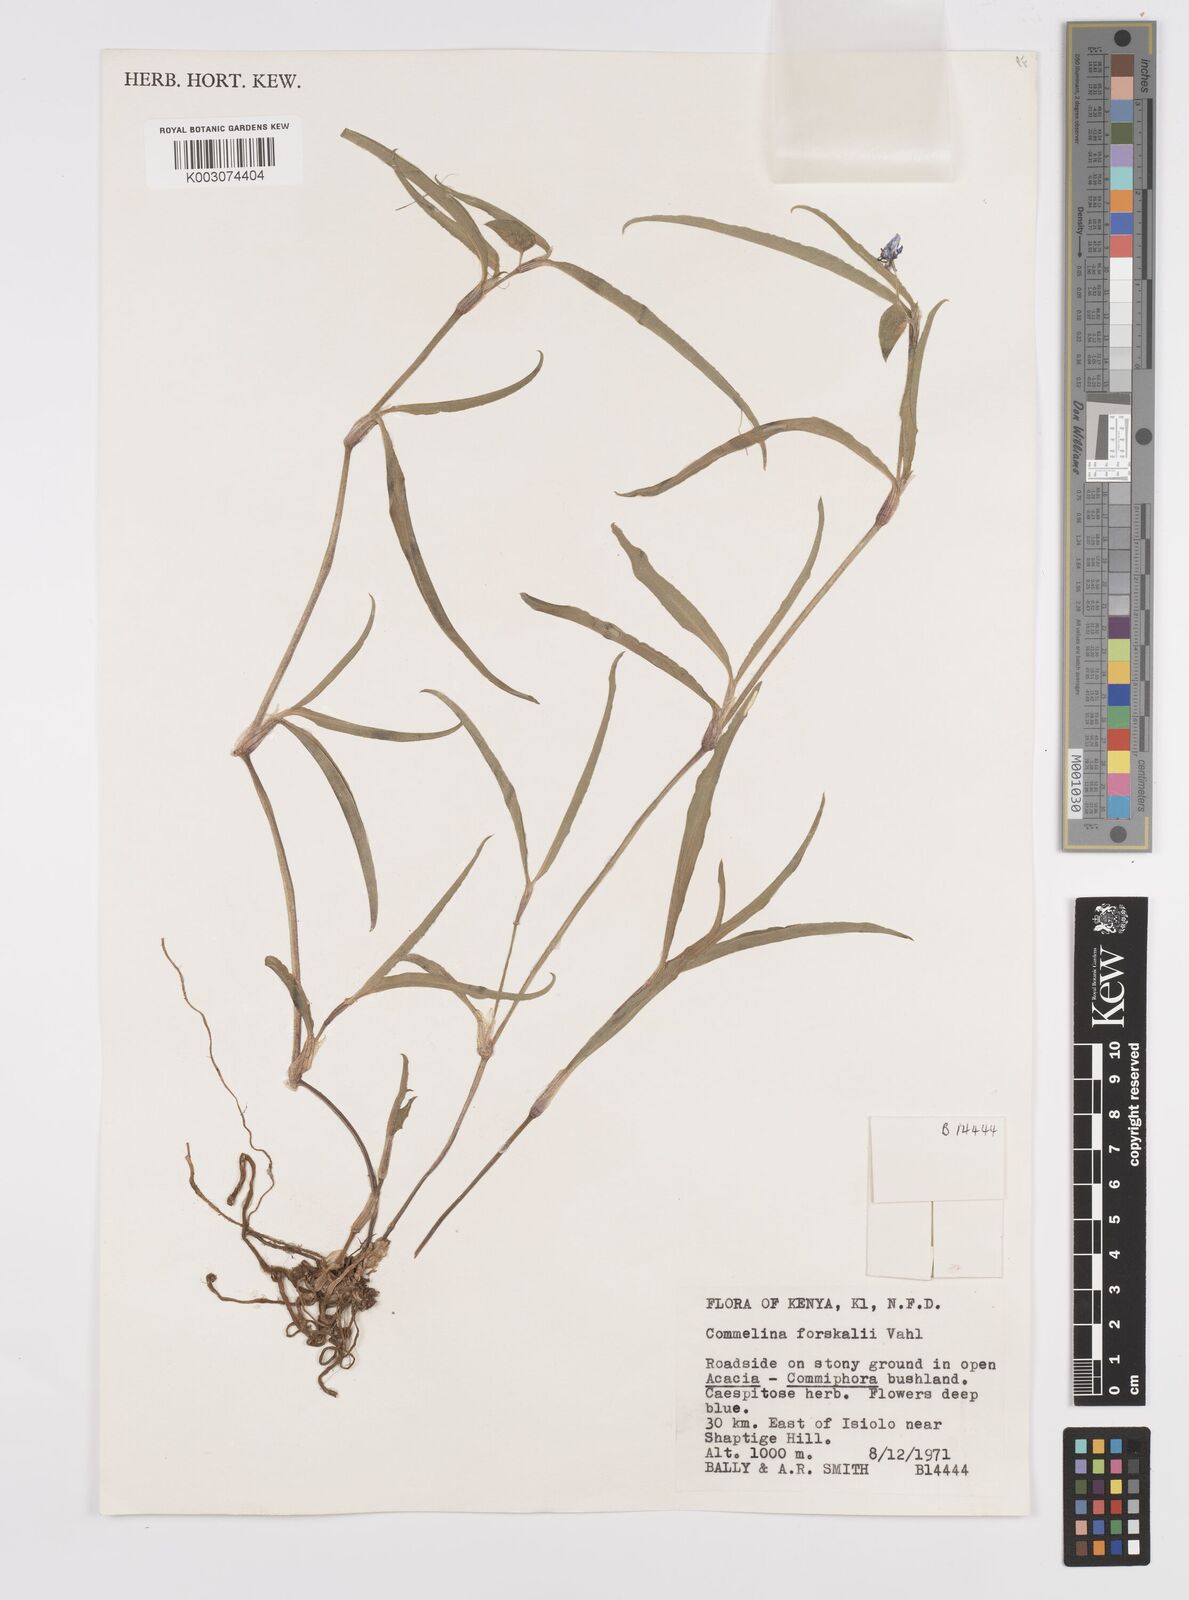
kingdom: Plantae
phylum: Tracheophyta
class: Liliopsida
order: Commelinales
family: Commelinaceae
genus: Commelina
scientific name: Commelina forskaolii
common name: Rat's ear
